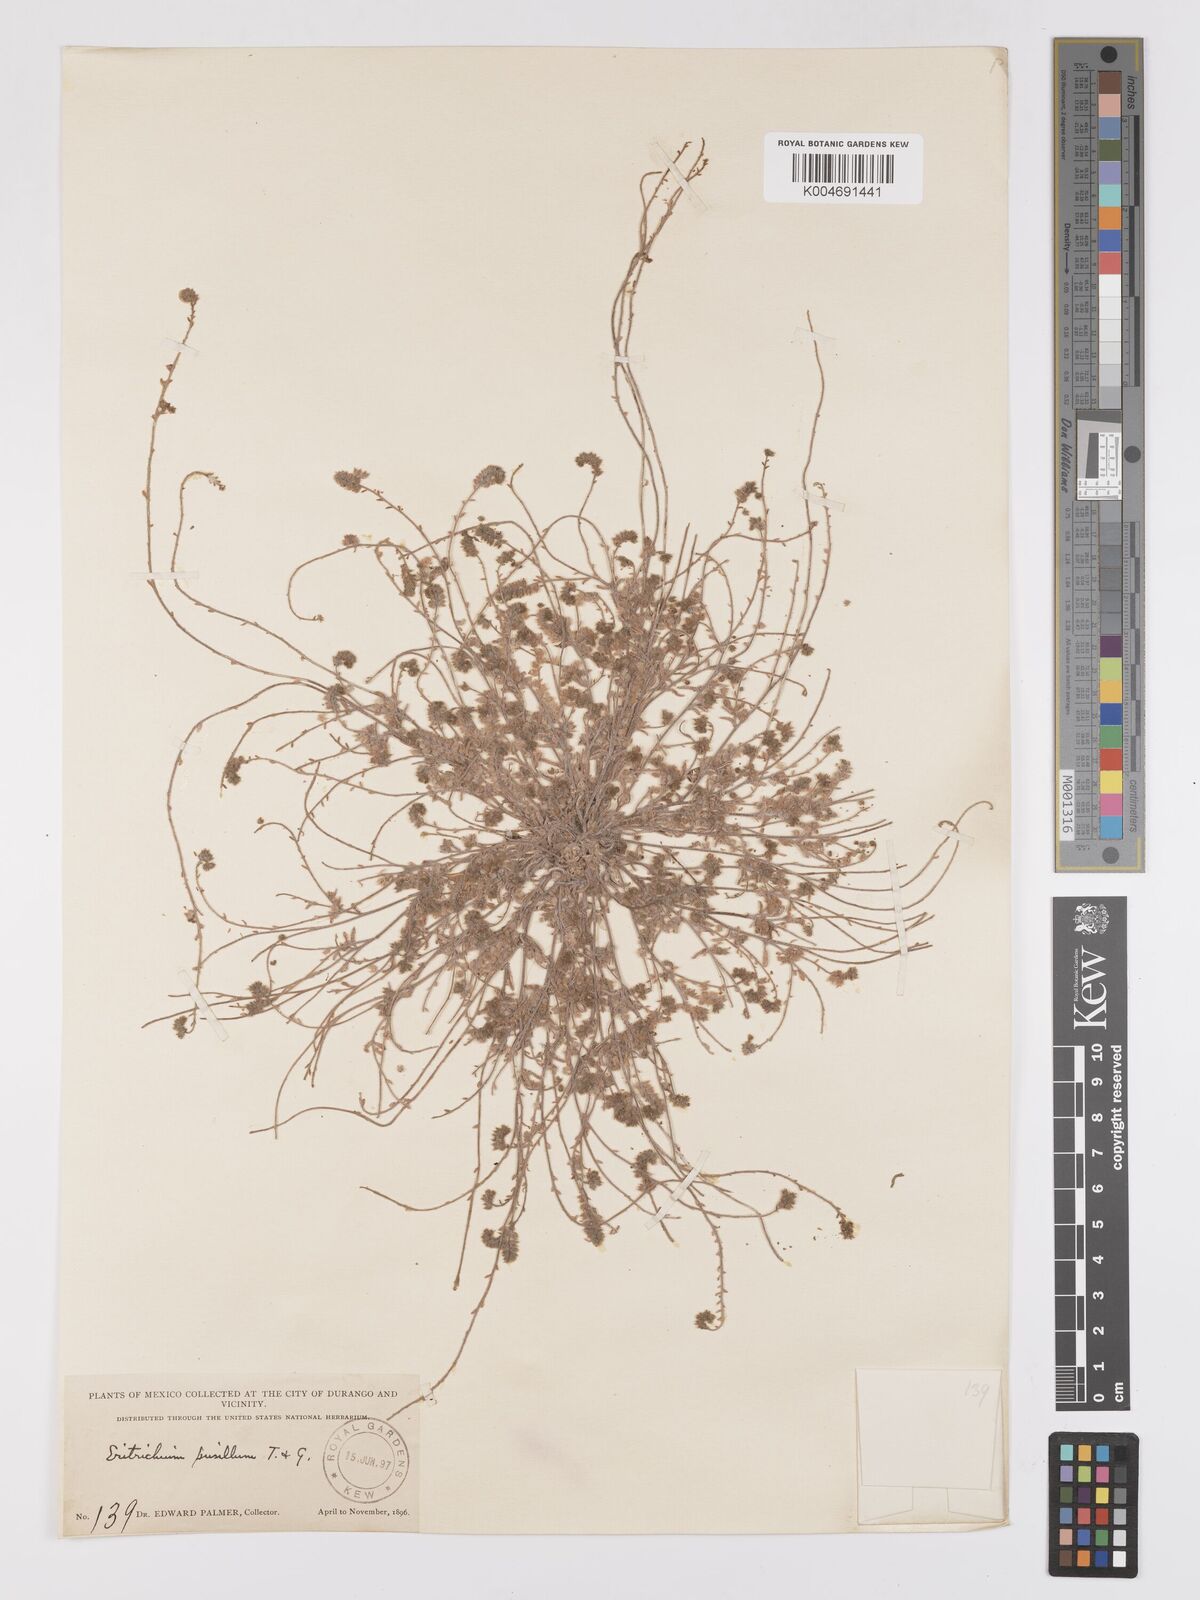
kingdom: Plantae
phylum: Tracheophyta
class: Magnoliopsida
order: Boraginales
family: Boraginaceae
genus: Johnstonella
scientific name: Johnstonella pusilla
